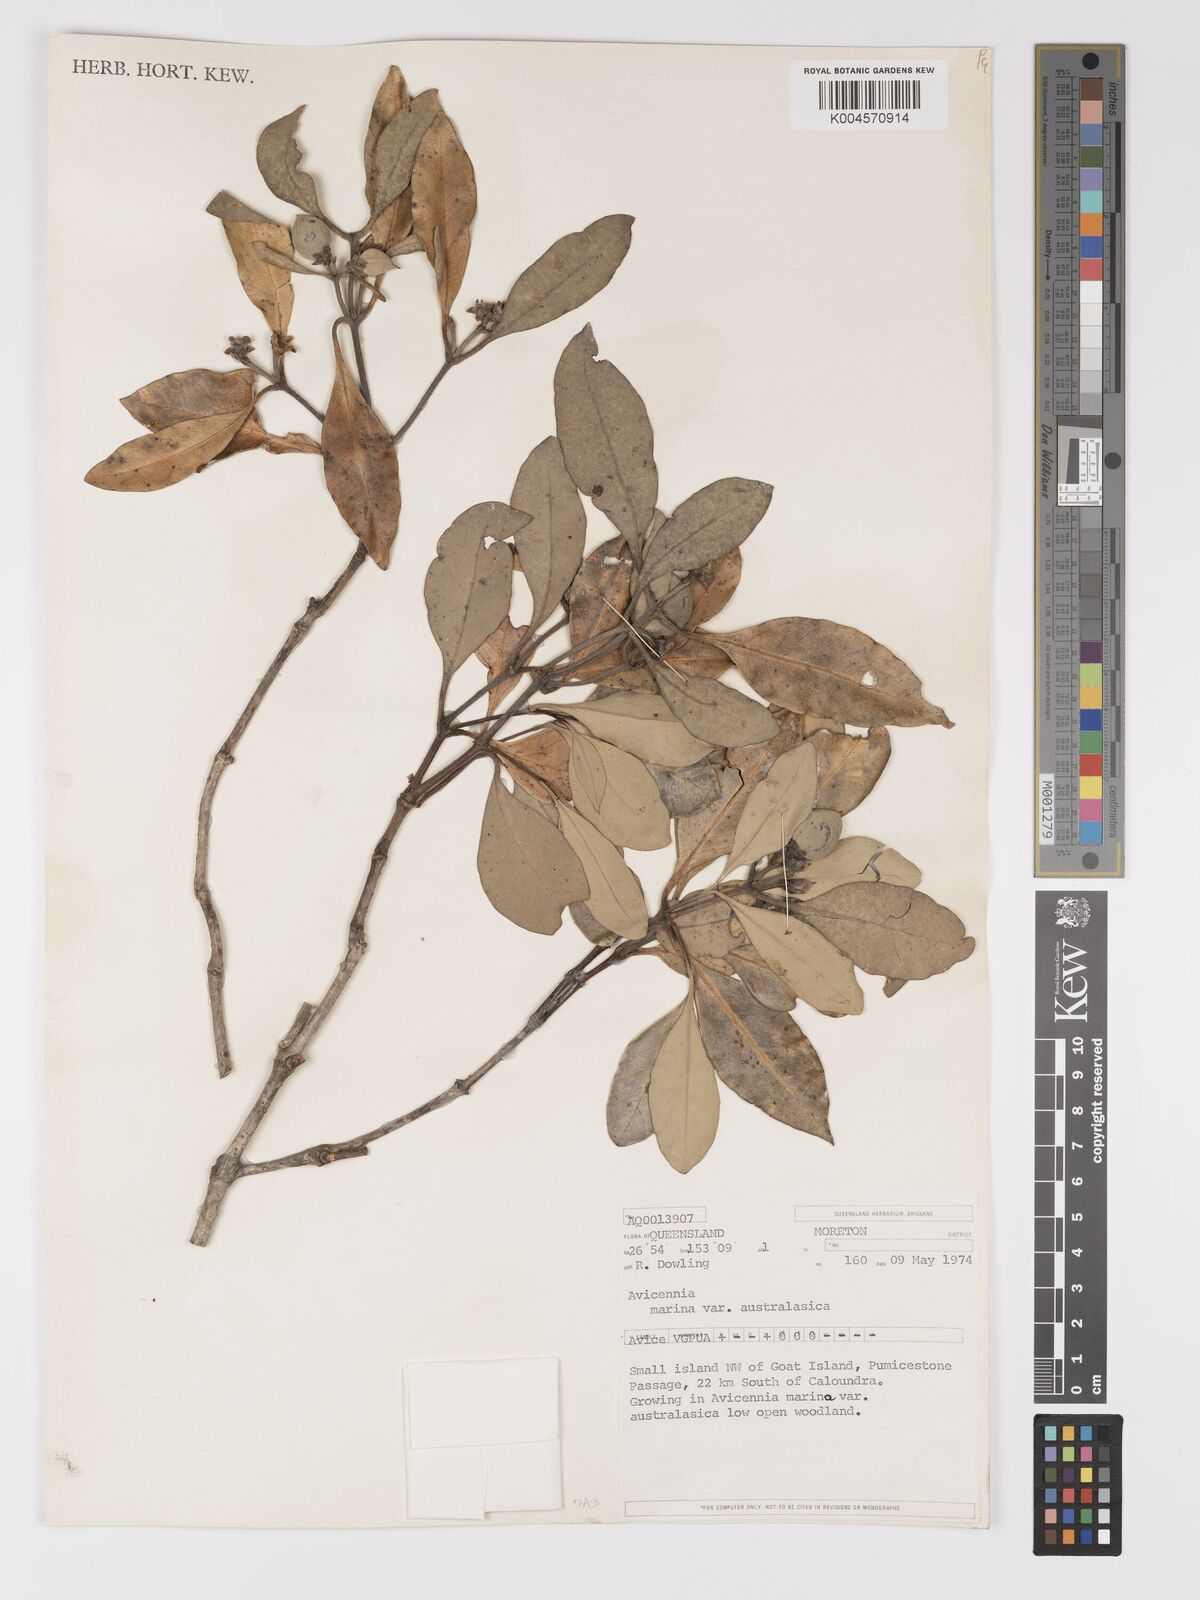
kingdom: Plantae
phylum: Tracheophyta
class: Magnoliopsida
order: Lamiales
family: Acanthaceae
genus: Avicennia
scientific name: Avicennia marina
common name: Gray mangrove
